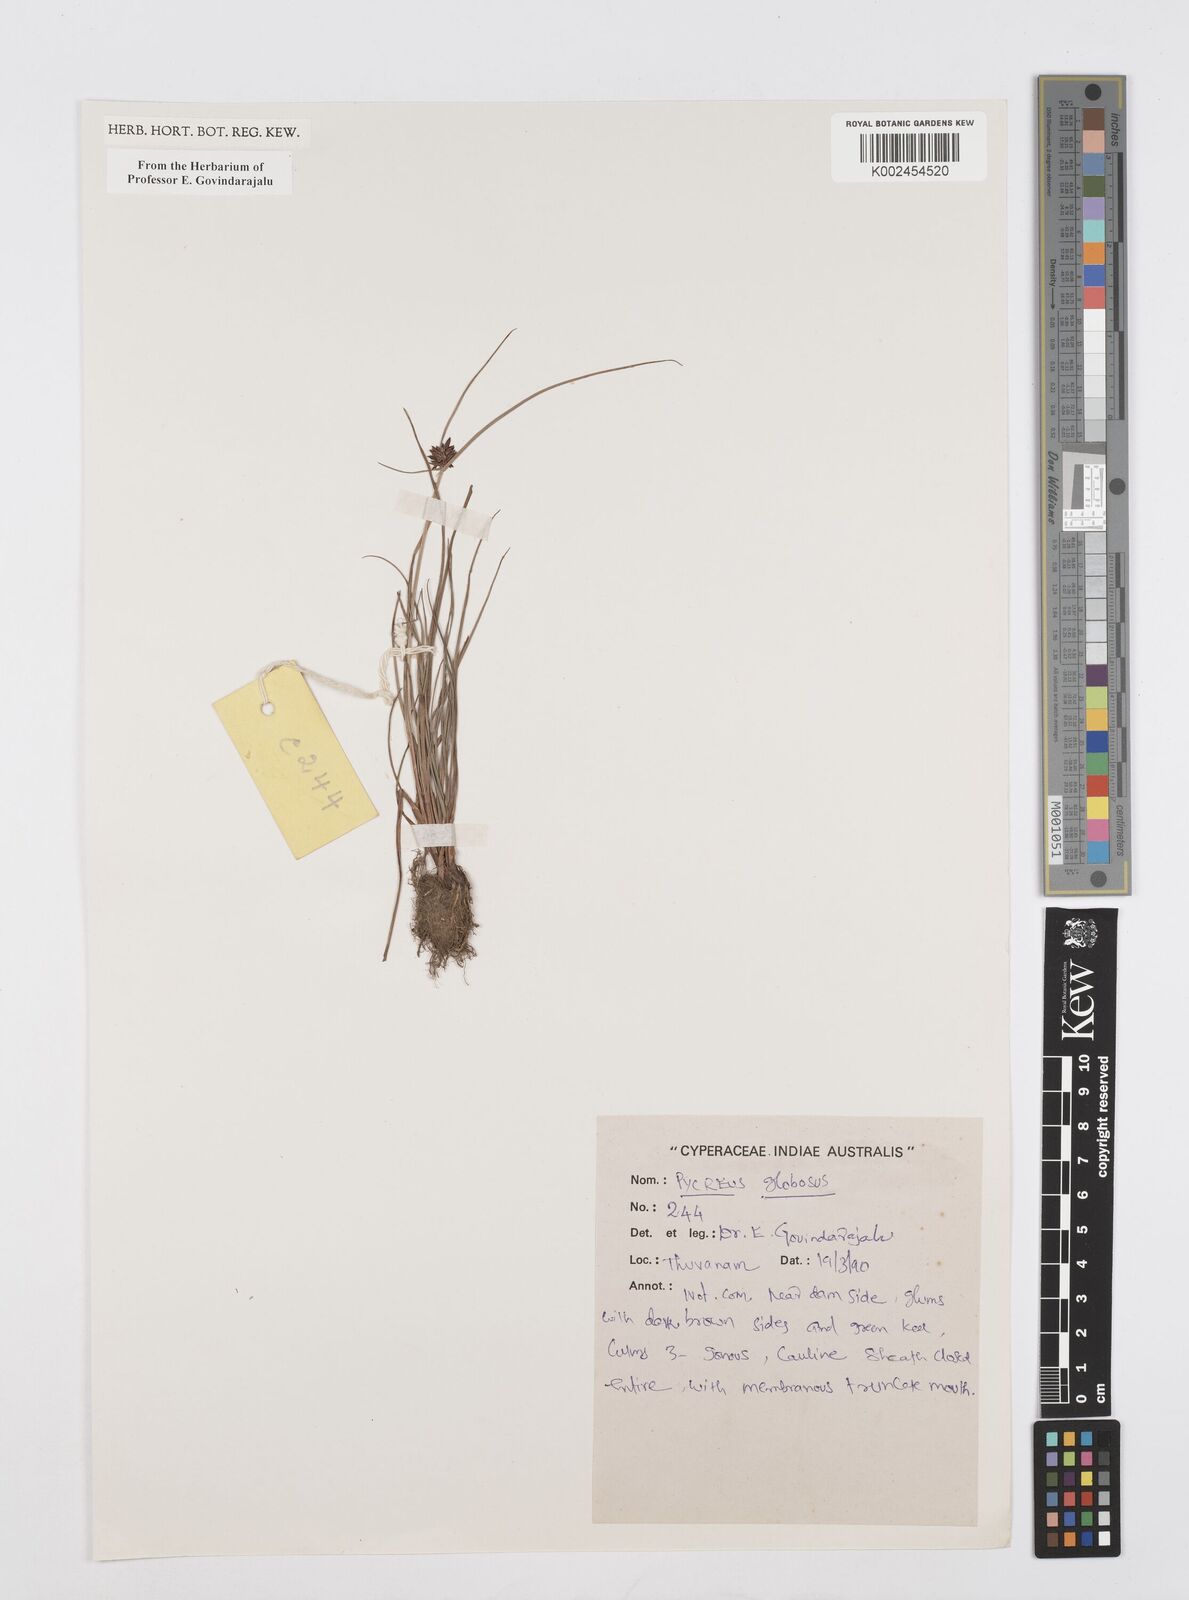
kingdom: Plantae
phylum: Tracheophyta
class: Liliopsida
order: Poales
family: Cyperaceae
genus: Cyperus
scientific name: Cyperus
